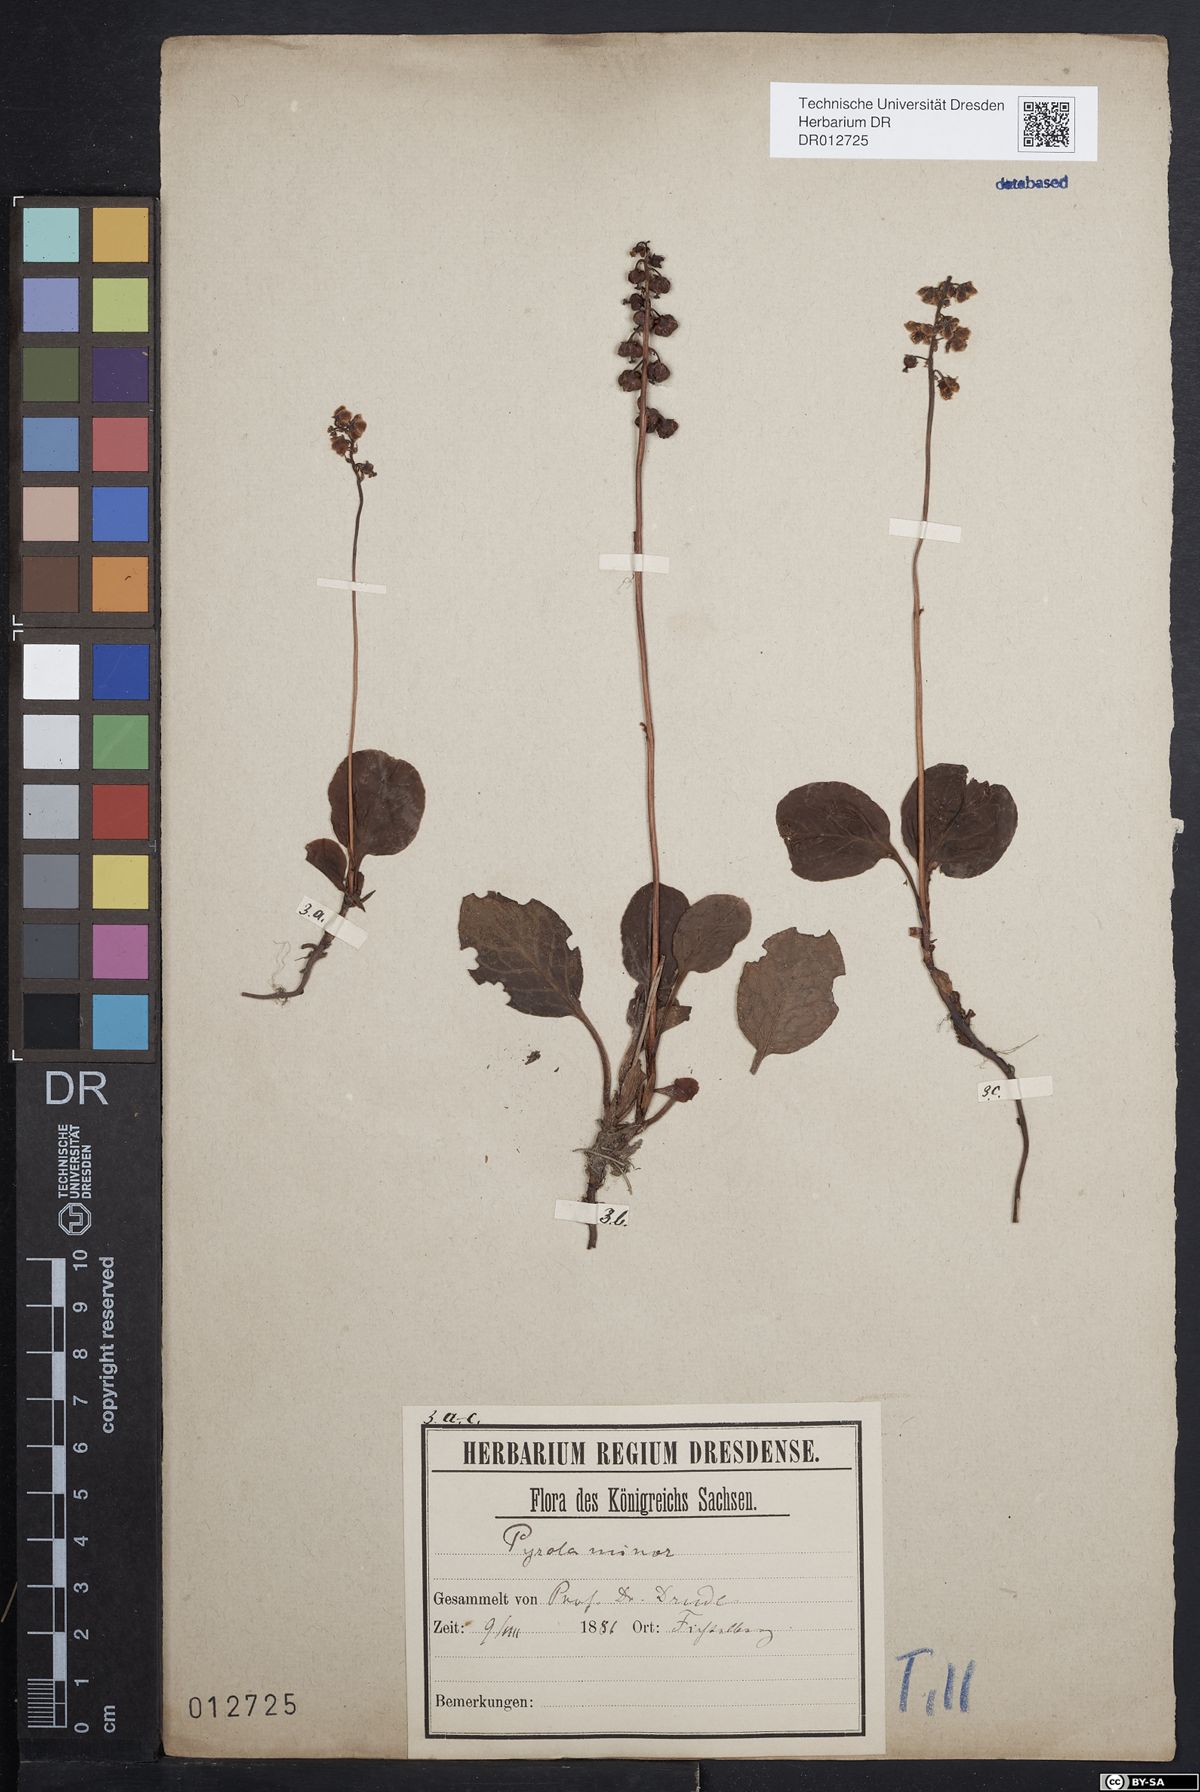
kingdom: Plantae
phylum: Tracheophyta
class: Magnoliopsida
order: Ericales
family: Ericaceae
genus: Pyrola
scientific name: Pyrola minor
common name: Common wintergreen
